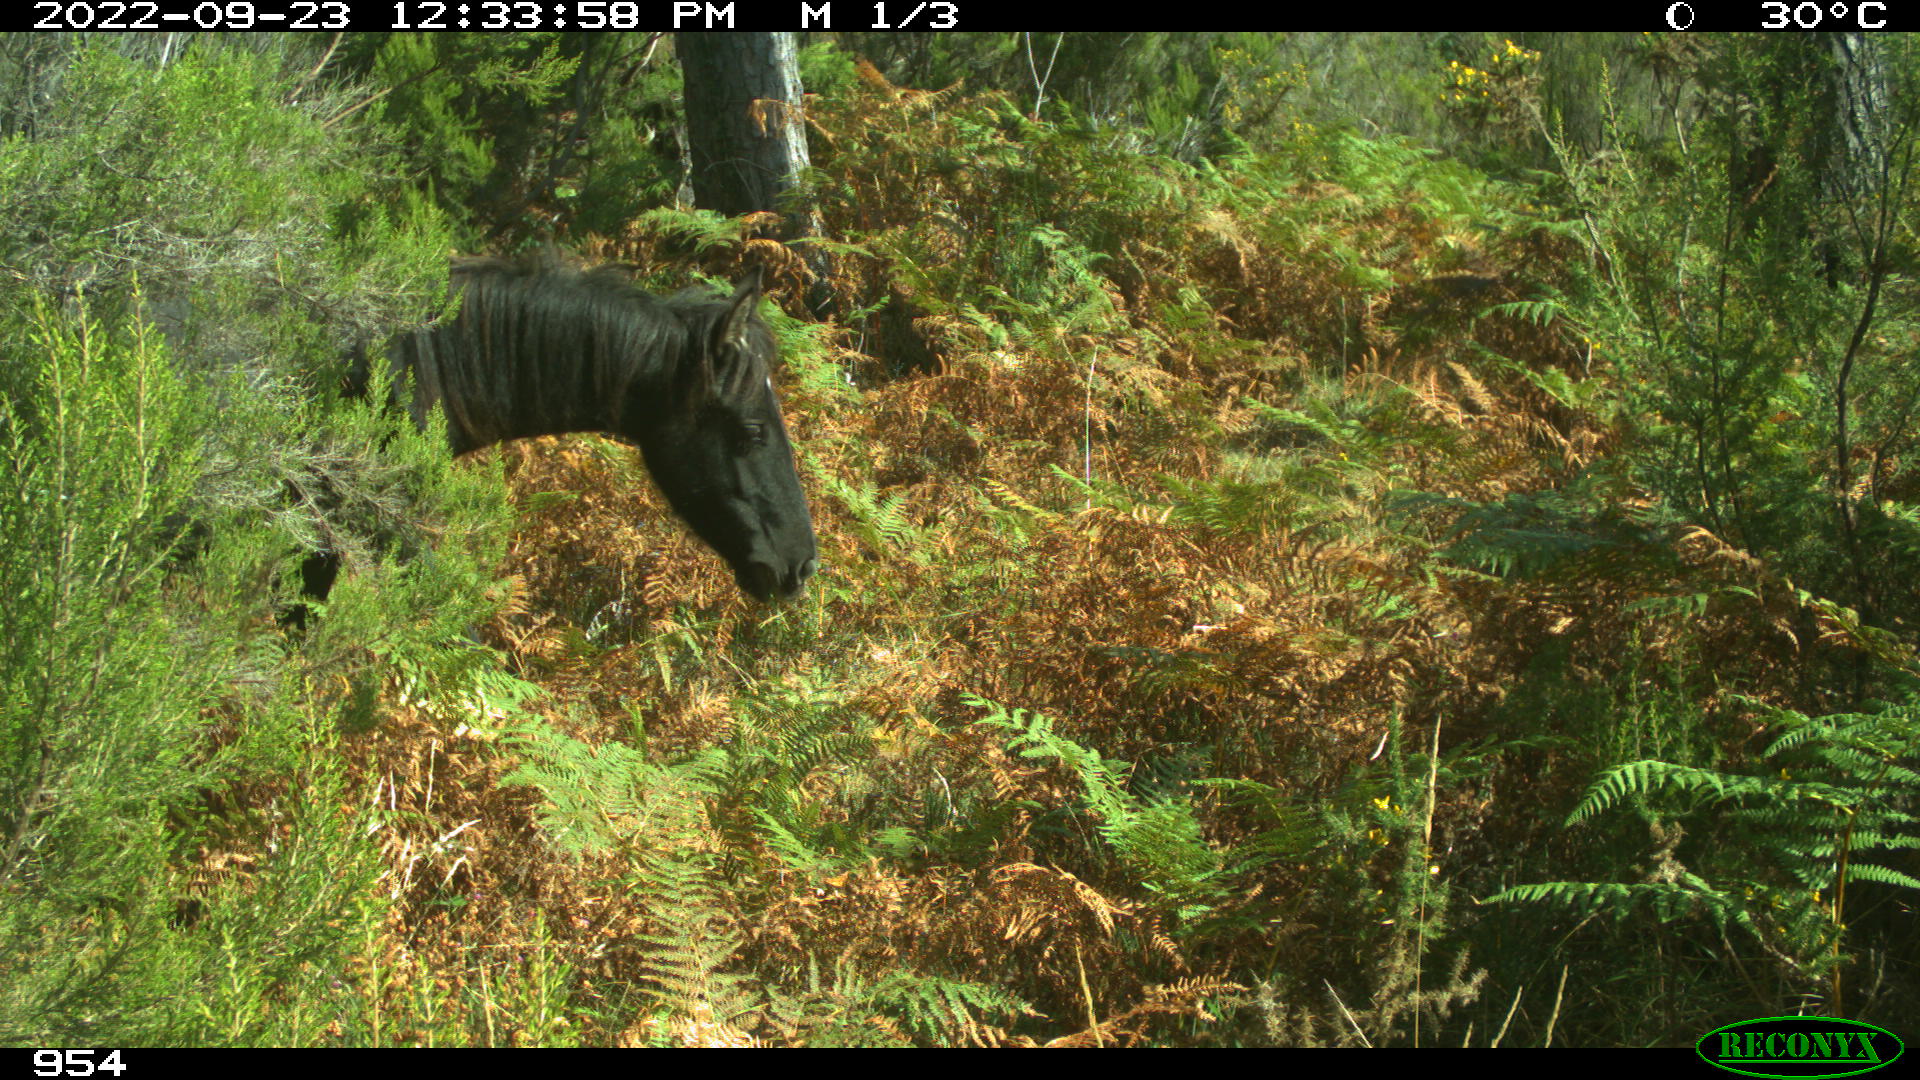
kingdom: Animalia
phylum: Chordata
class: Mammalia
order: Perissodactyla
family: Equidae
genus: Equus
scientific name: Equus caballus
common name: Horse
